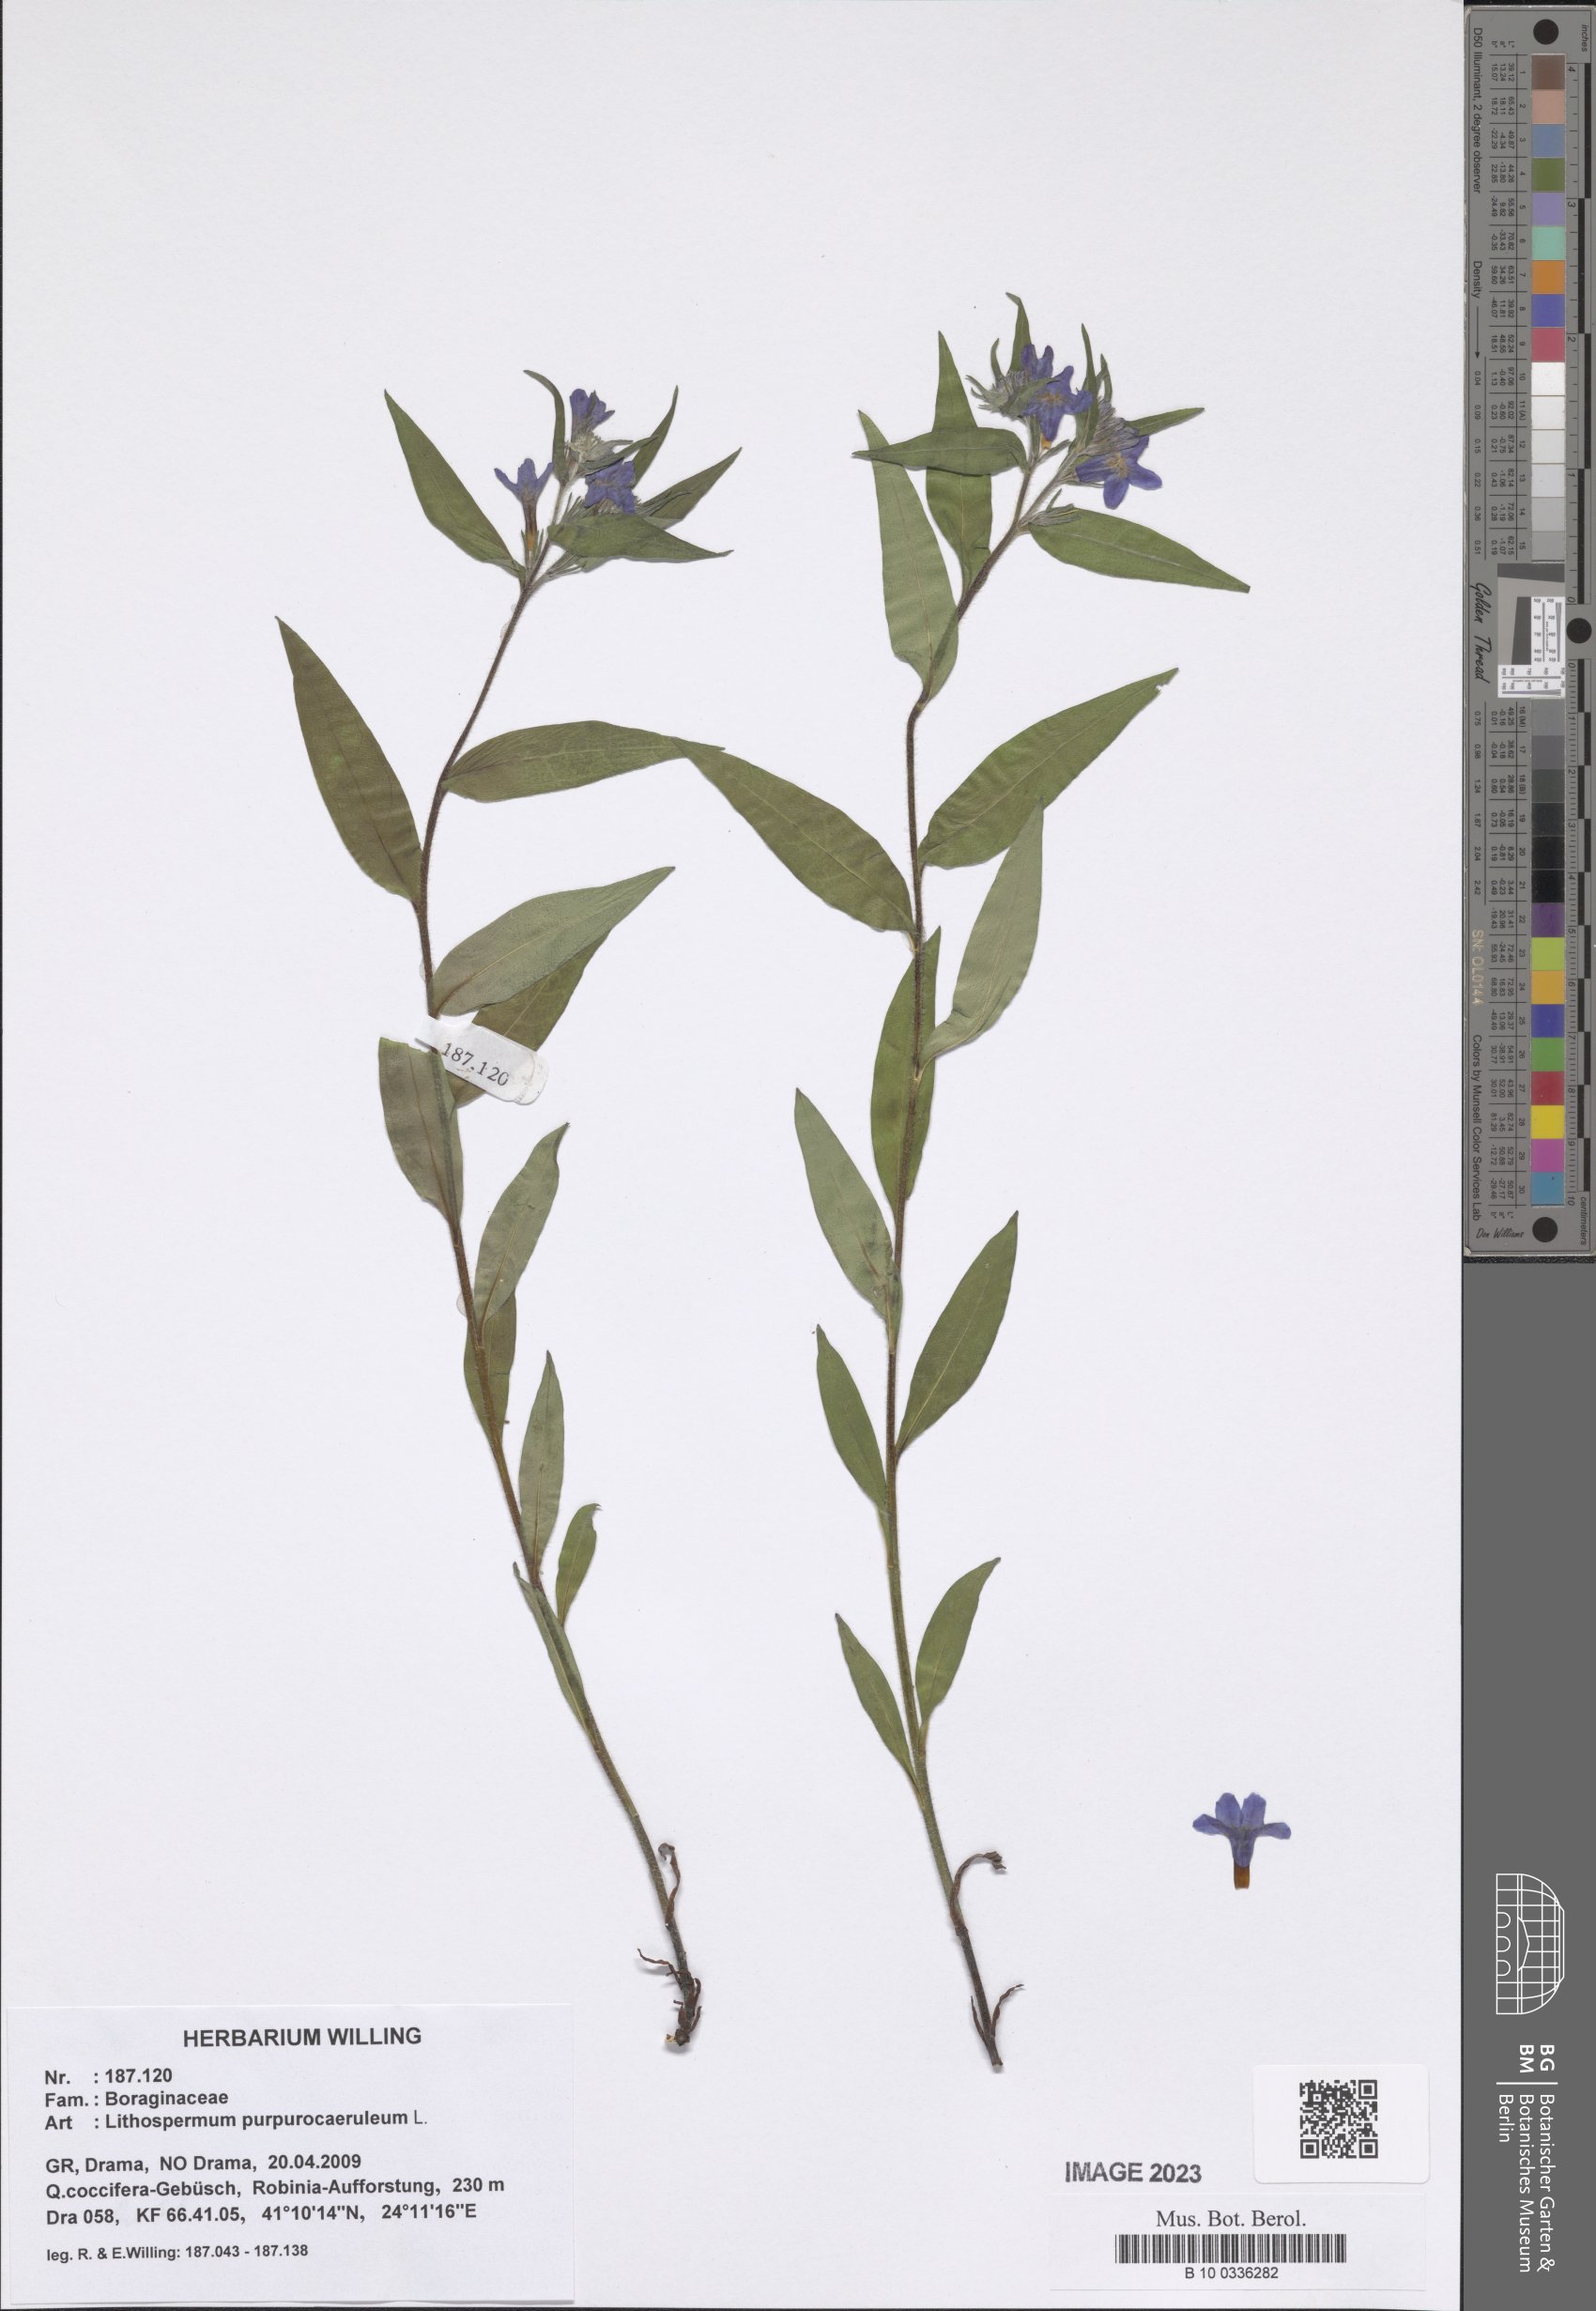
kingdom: Plantae
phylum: Tracheophyta
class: Magnoliopsida
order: Boraginales
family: Boraginaceae
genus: Aegonychon
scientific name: Aegonychon purpurocaeruleum
